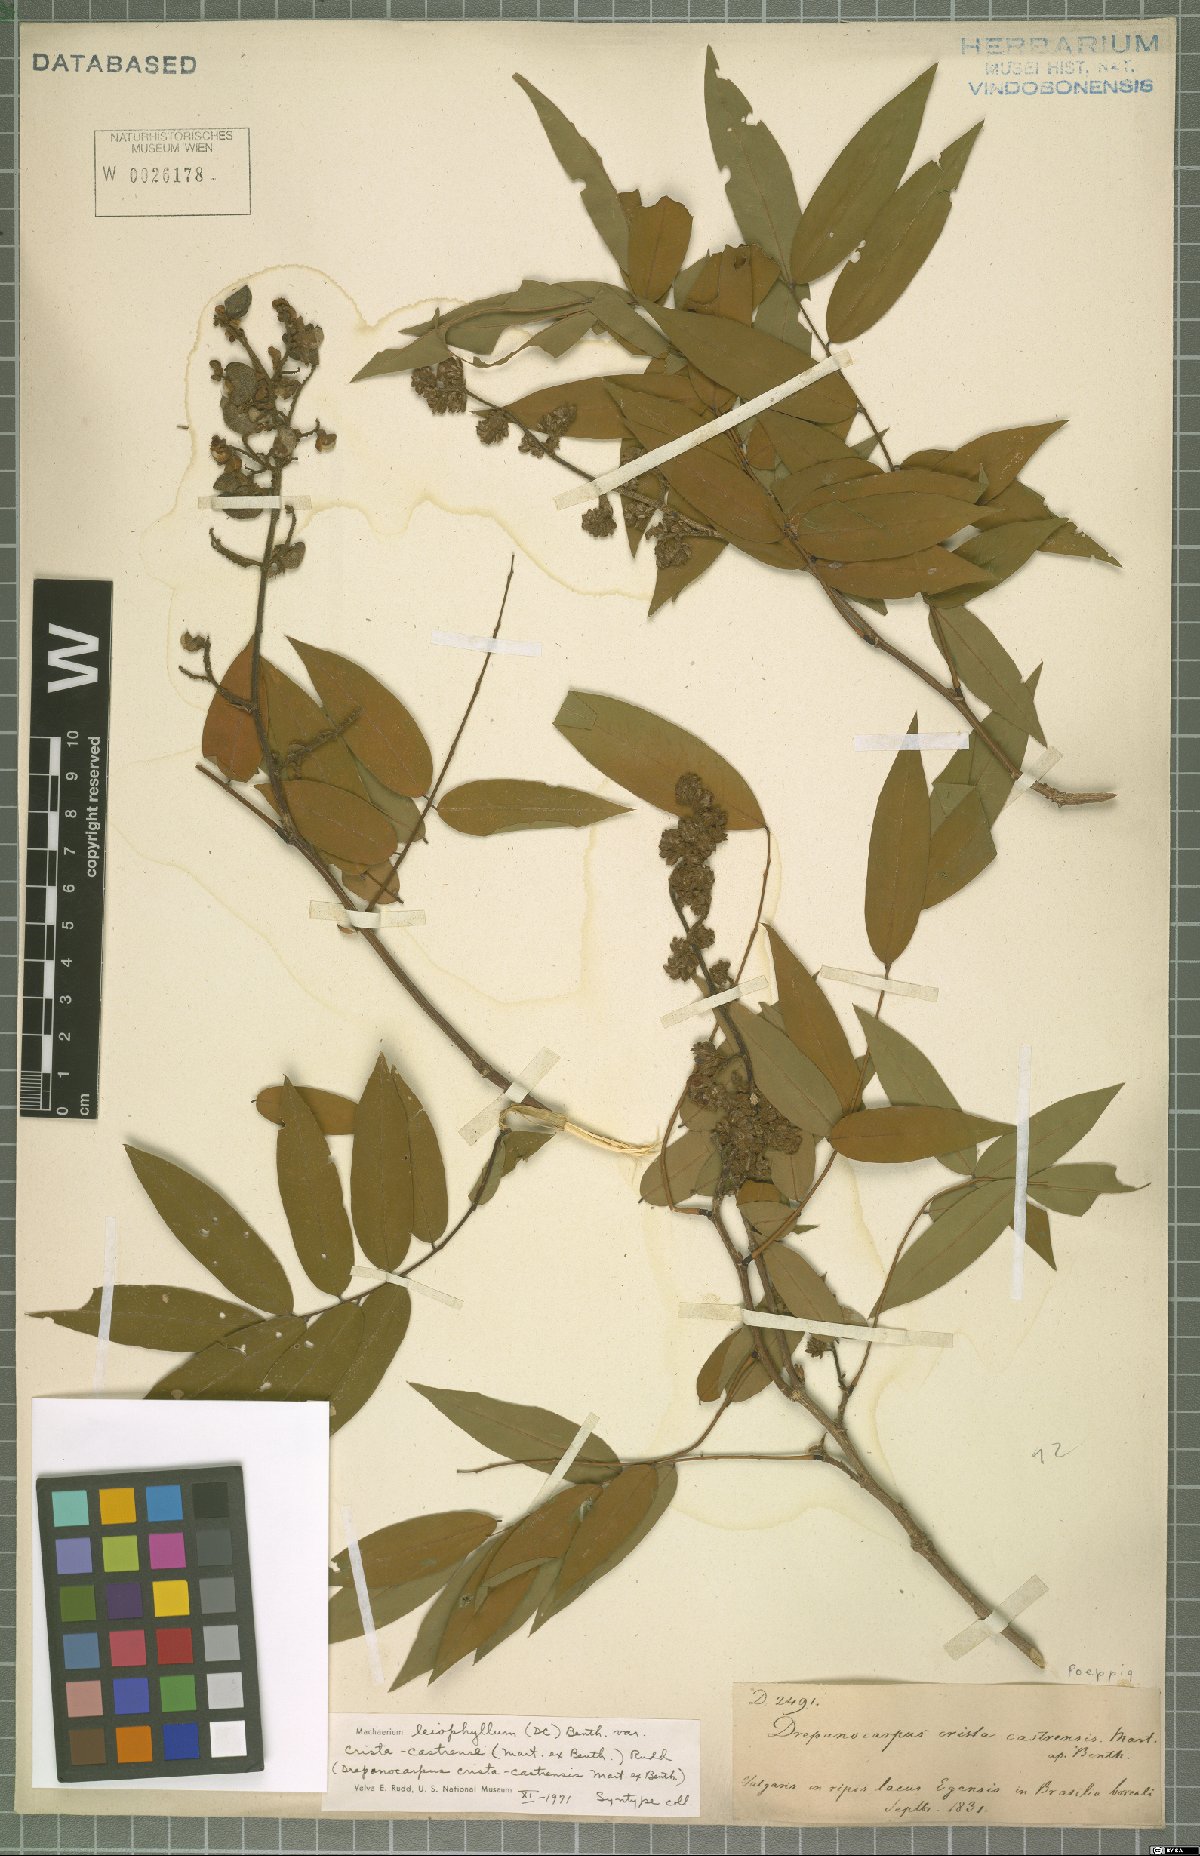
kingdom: Plantae
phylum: Tracheophyta
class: Magnoliopsida
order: Fabales
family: Fabaceae
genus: Machaerium
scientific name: Machaerium leiophyllum
